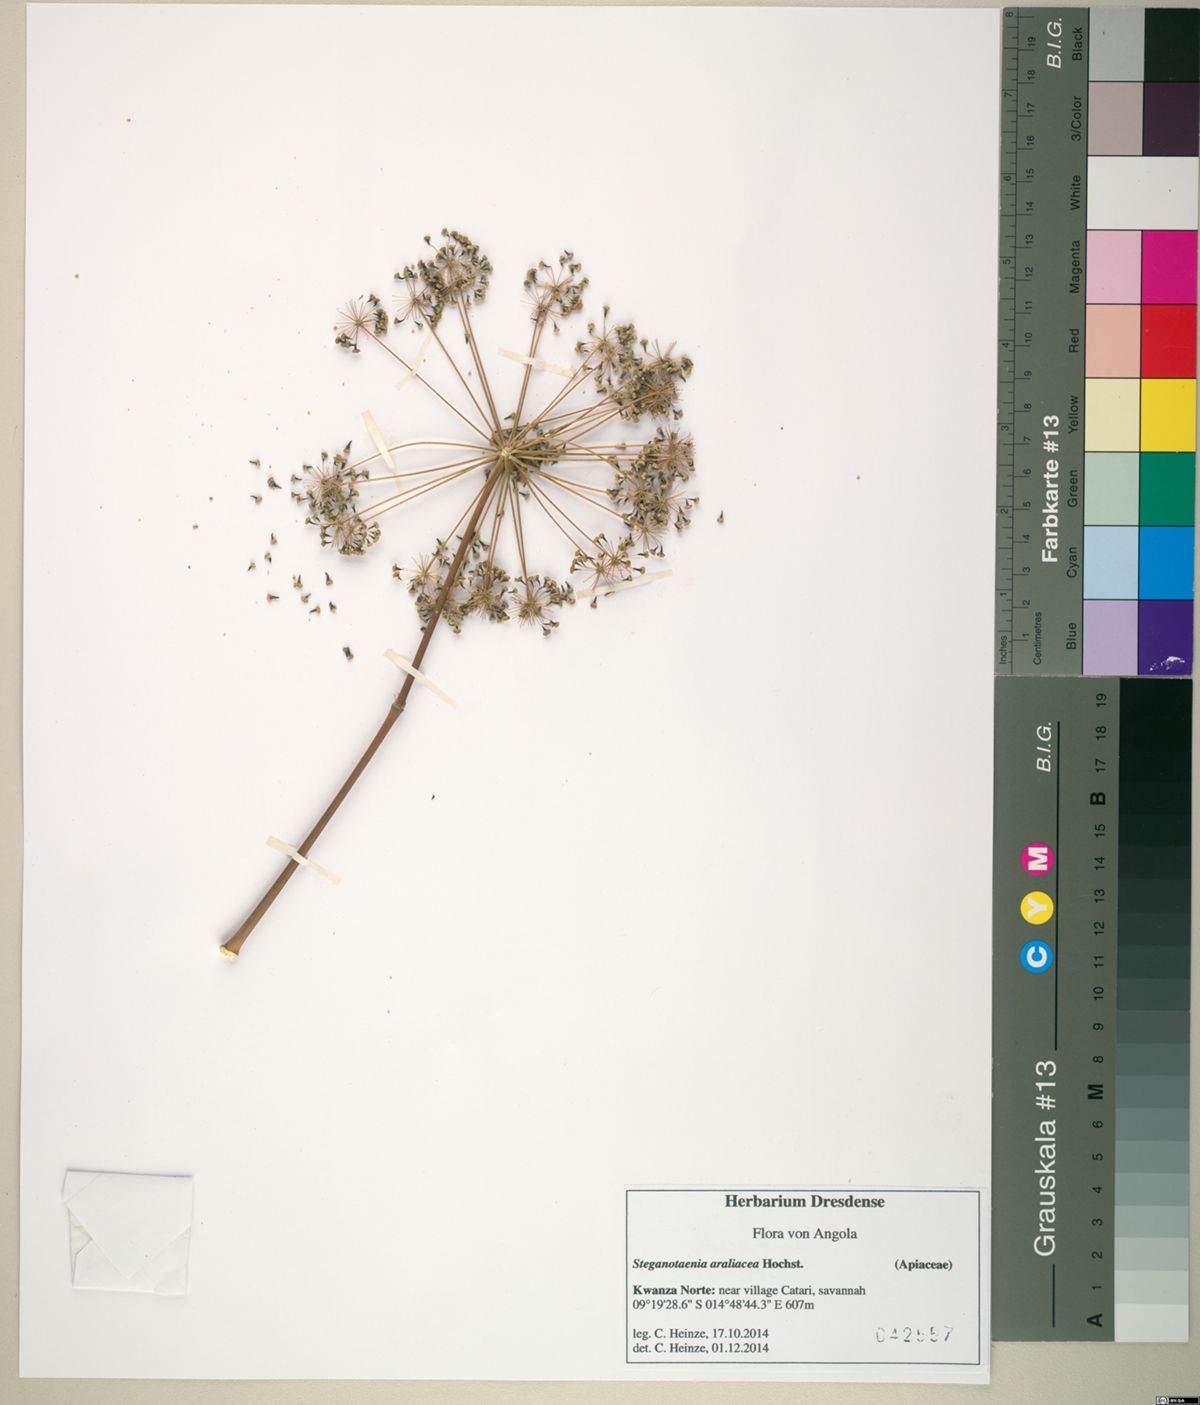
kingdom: Plantae
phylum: Tracheophyta
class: Magnoliopsida
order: Apiales
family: Apiaceae
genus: Steganotaenia
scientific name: Steganotaenia araliacea
